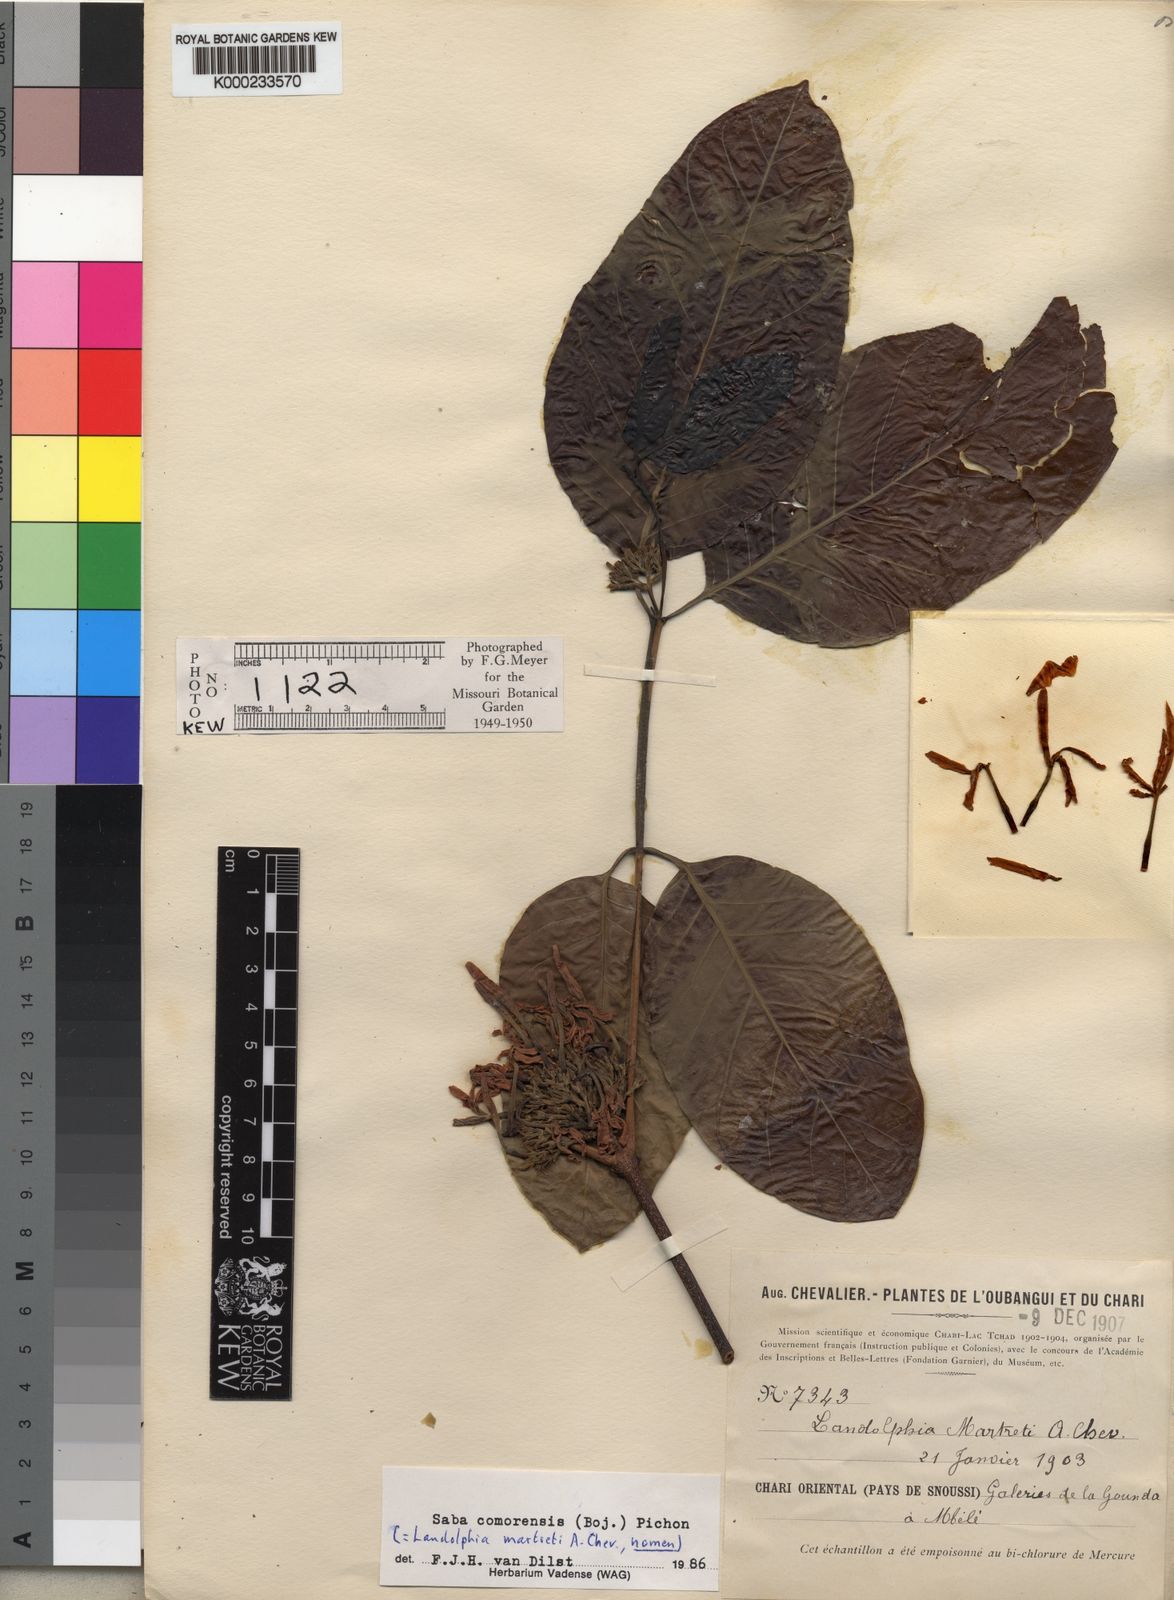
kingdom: Plantae
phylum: Tracheophyta
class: Magnoliopsida
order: Gentianales
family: Apocynaceae
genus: Saba
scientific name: Saba comorensis
